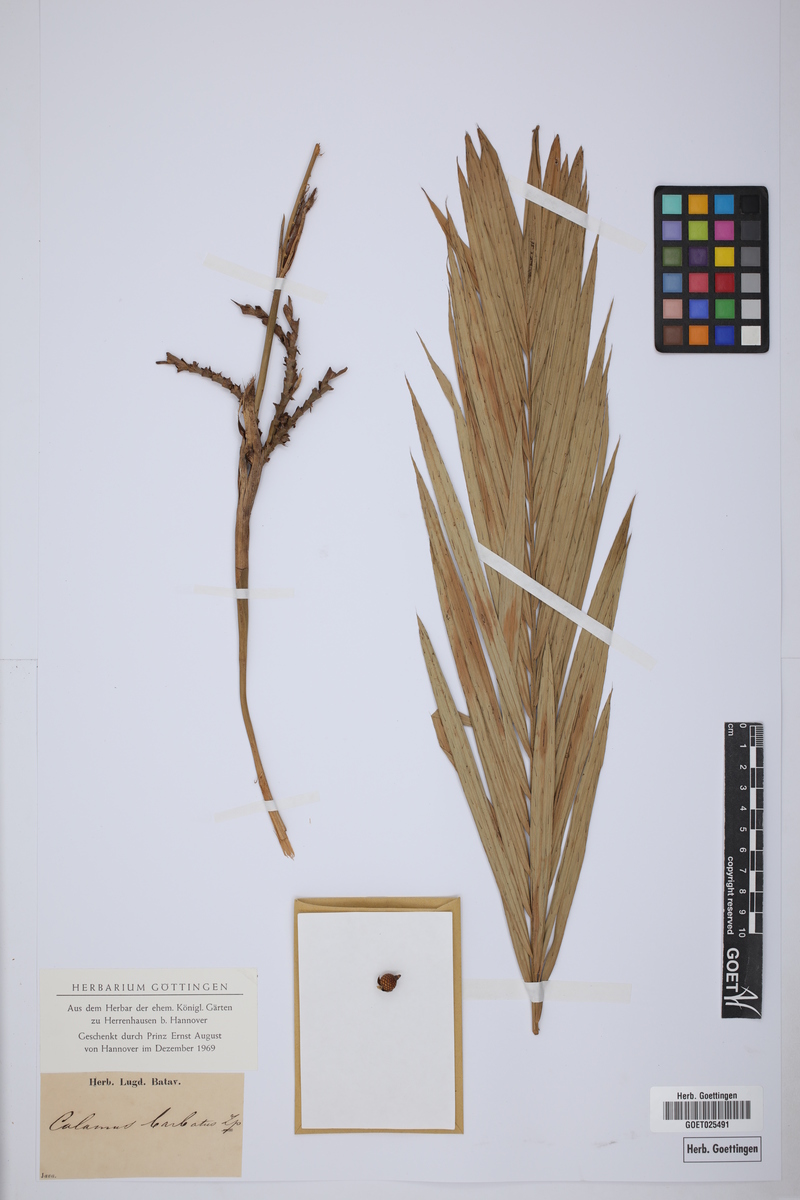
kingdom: Plantae
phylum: Tracheophyta
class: Liliopsida
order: Arecales
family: Arecaceae
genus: Calamus
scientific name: Calamus barbatus
